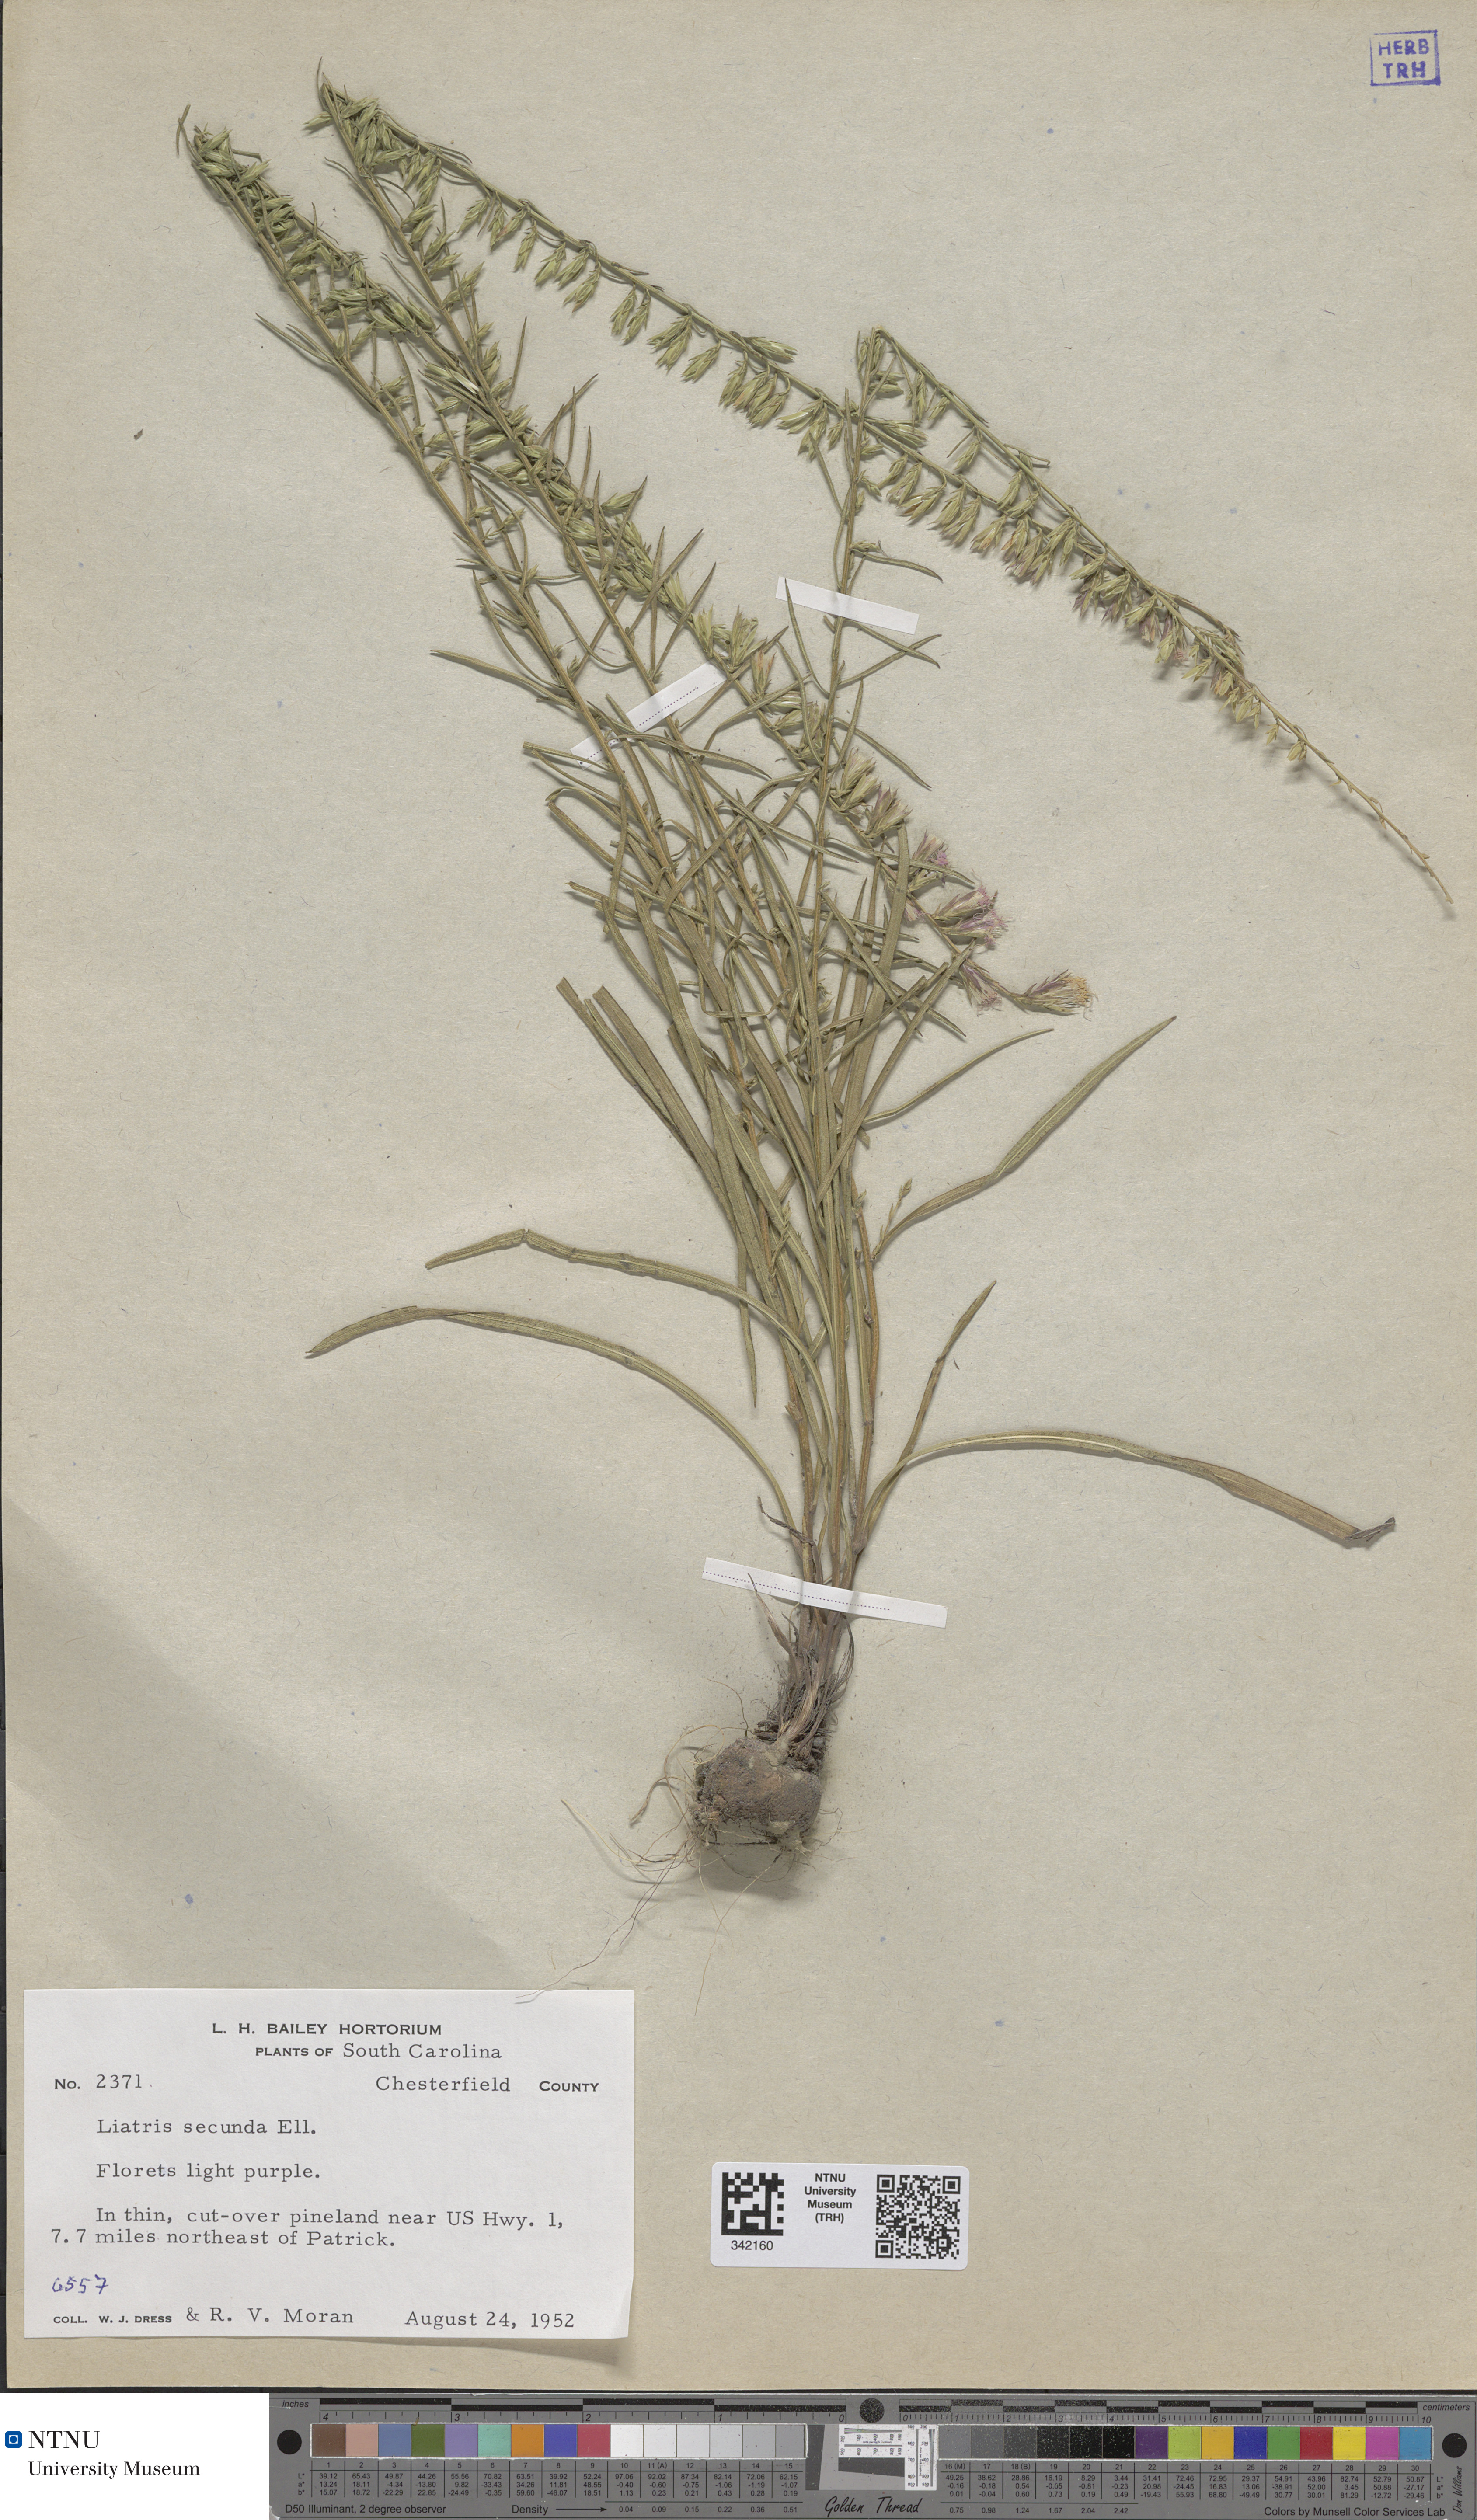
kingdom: Plantae
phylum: Tracheophyta
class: Magnoliopsida
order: Asterales
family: Asteraceae
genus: Liatris
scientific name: Liatris pauciflora
